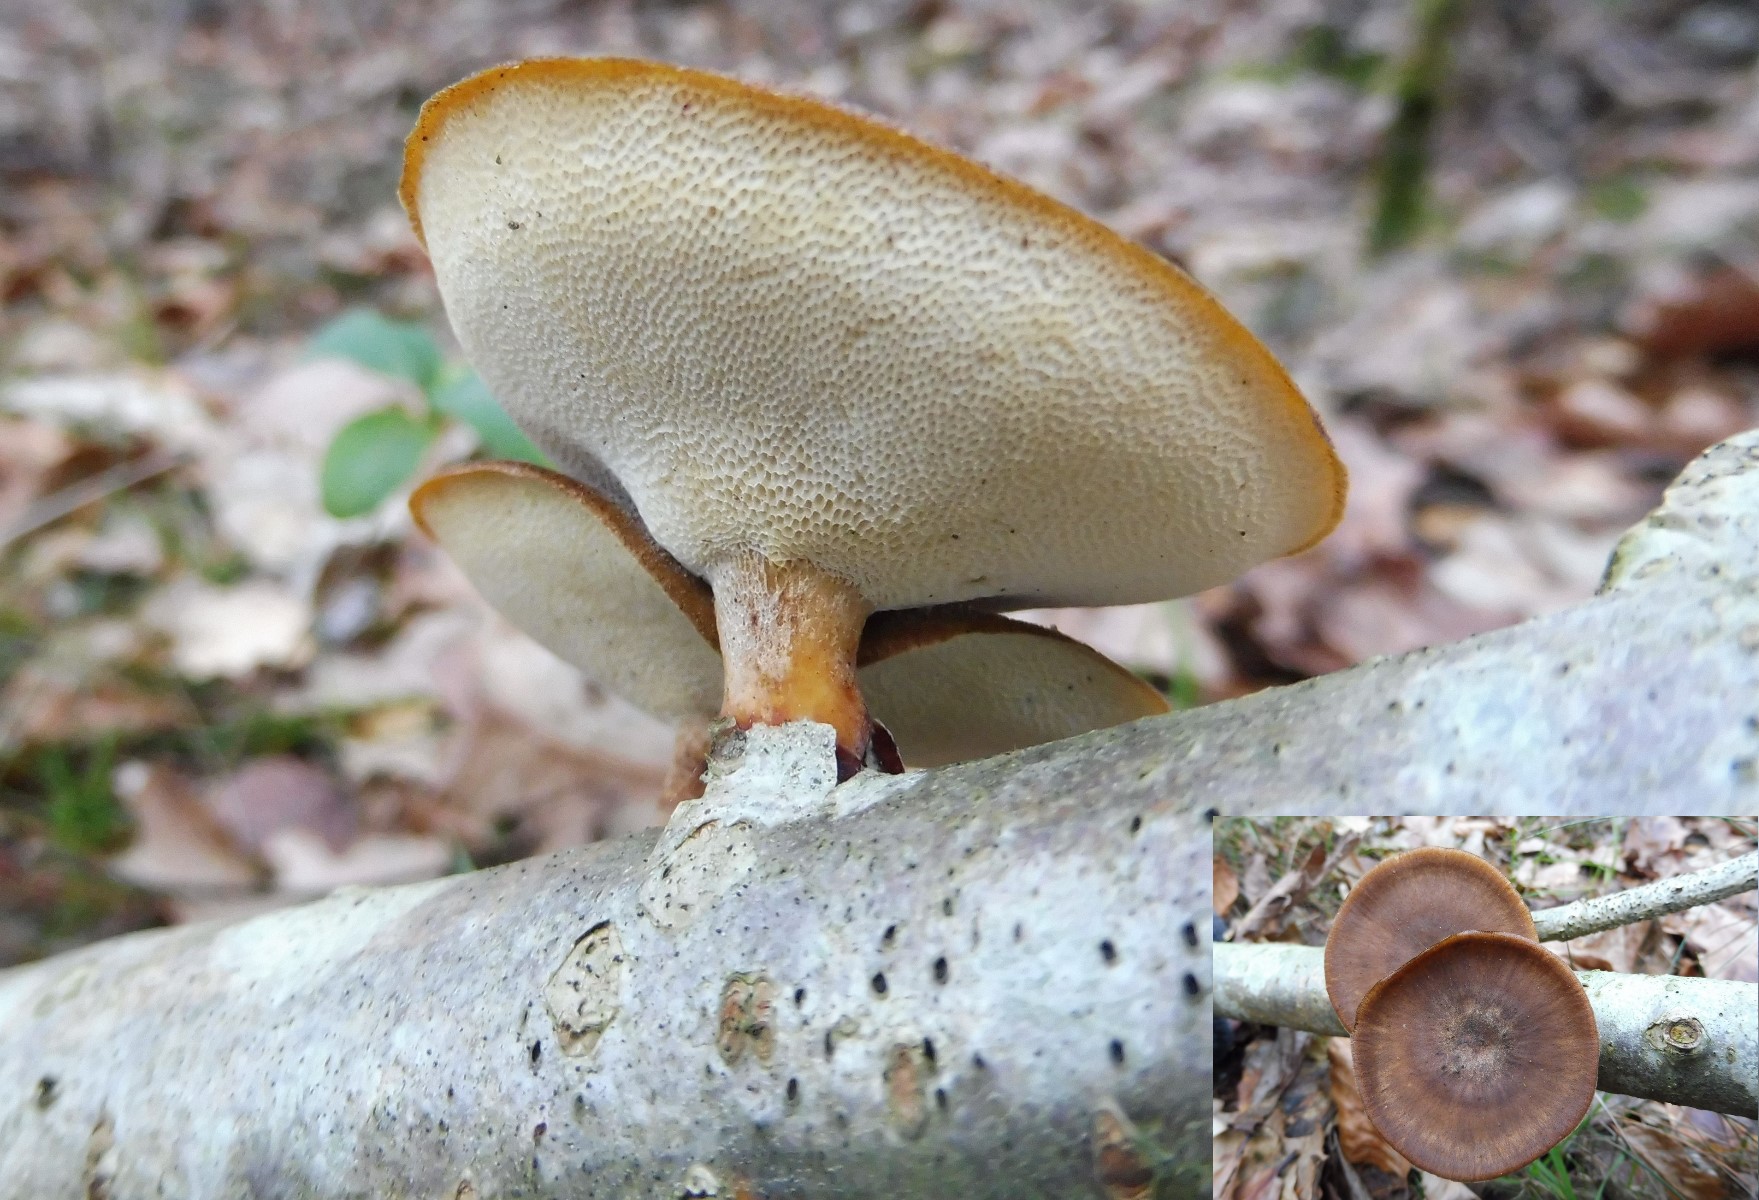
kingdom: Fungi
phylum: Basidiomycota
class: Agaricomycetes
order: Polyporales
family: Polyporaceae
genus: Lentinus
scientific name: Lentinus brumalis
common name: vinter-stilkporesvamp
